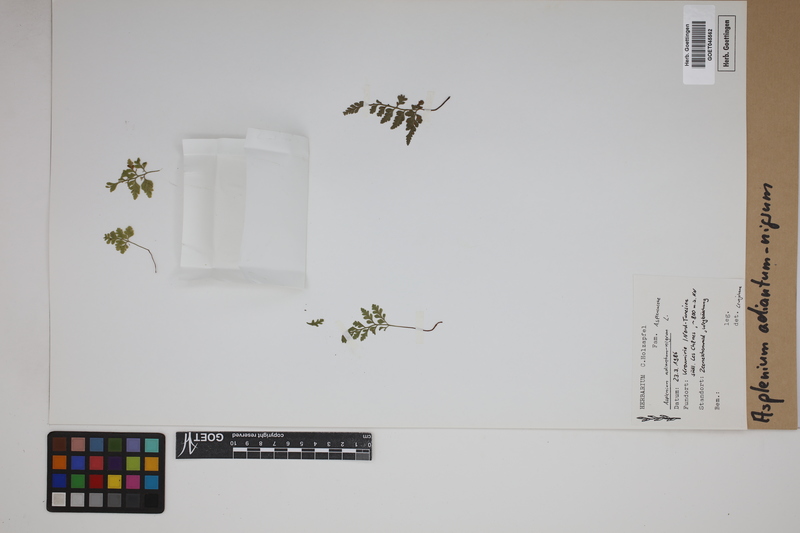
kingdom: Plantae
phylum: Tracheophyta
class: Polypodiopsida
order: Polypodiales
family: Aspleniaceae
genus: Asplenium
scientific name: Asplenium adiantum-nigrum
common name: Black spleenwort
